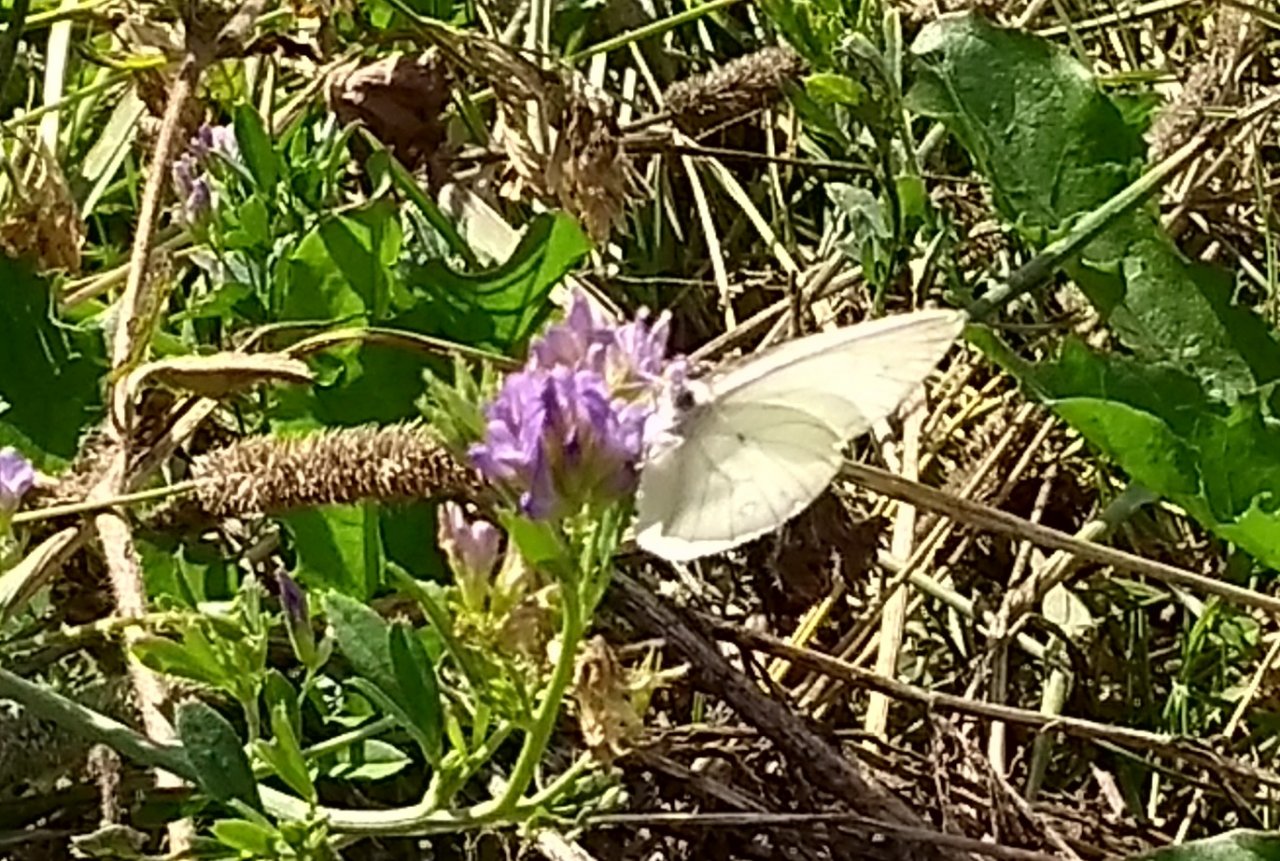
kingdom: Animalia
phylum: Arthropoda
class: Insecta
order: Lepidoptera
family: Pieridae
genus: Pieris
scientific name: Pieris oleracea
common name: Mustard White
